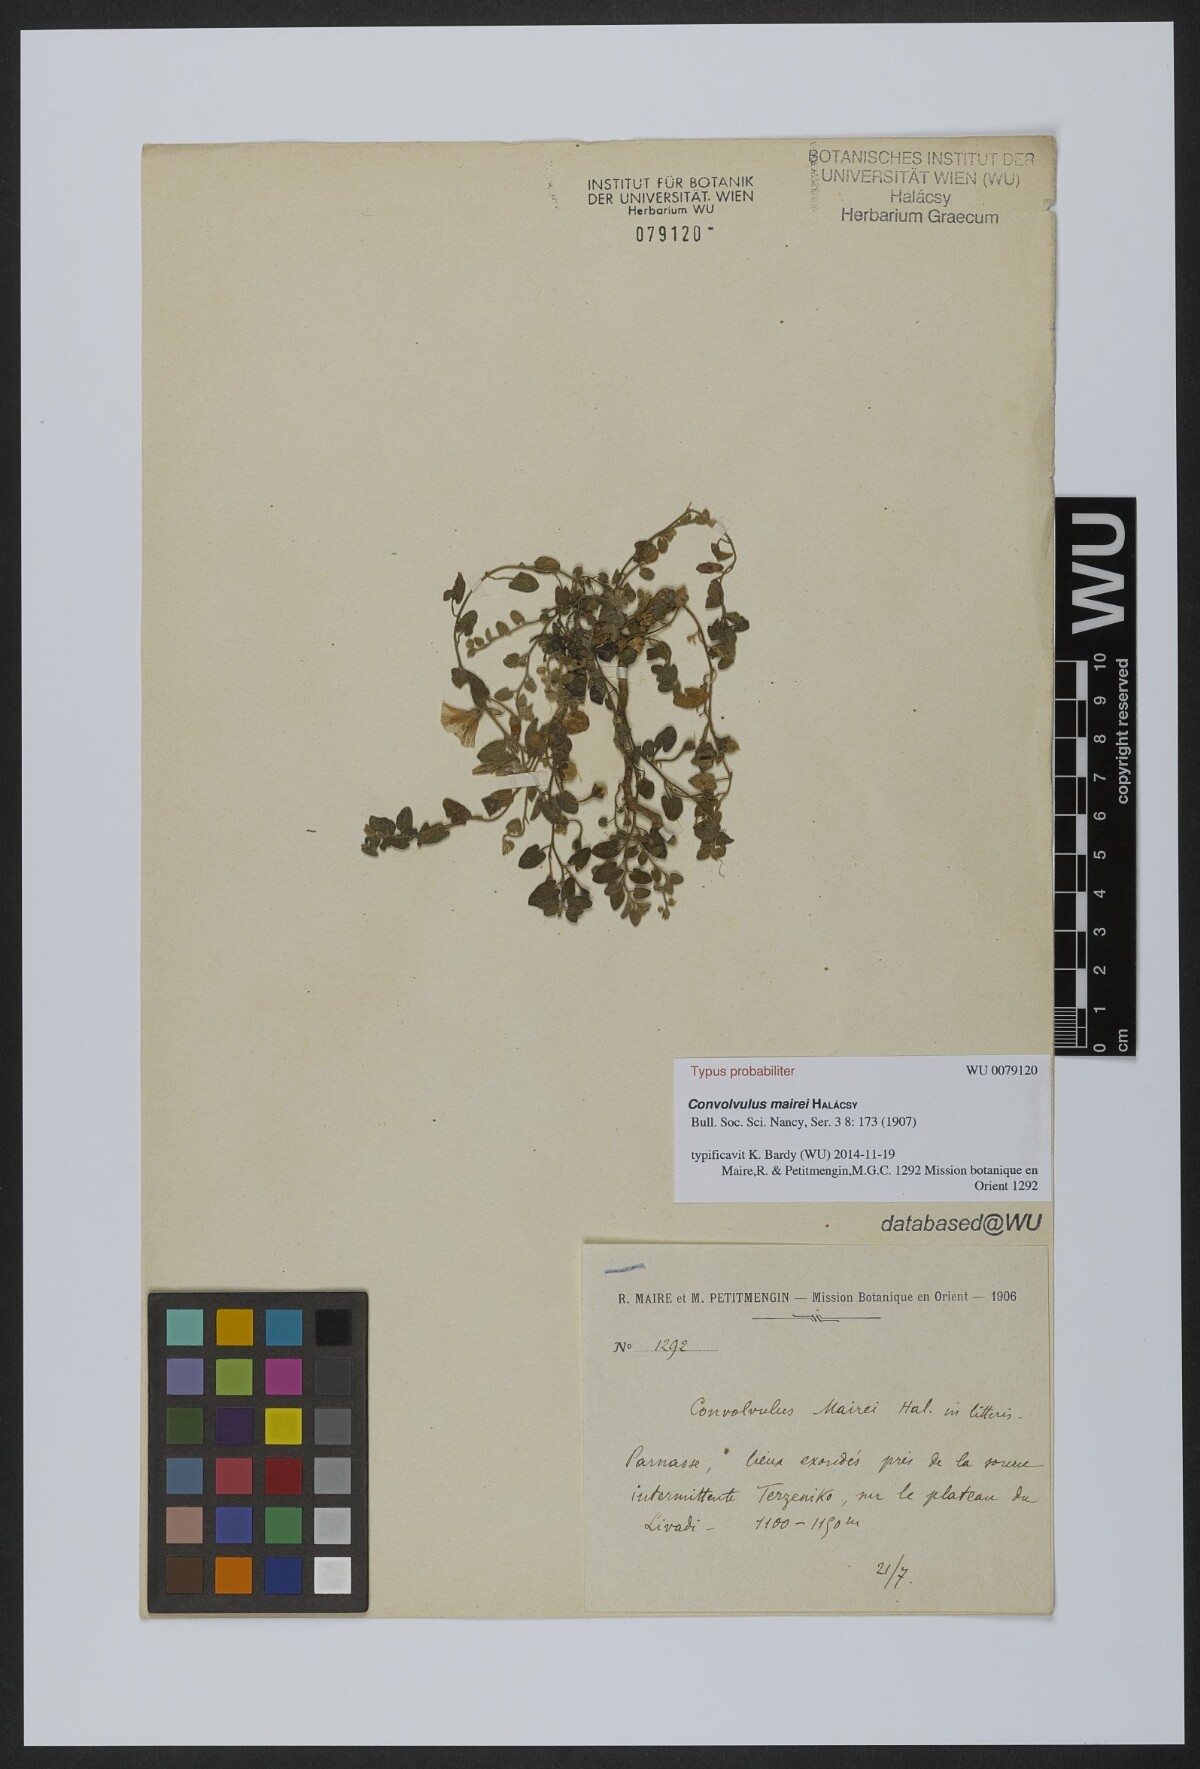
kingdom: Plantae
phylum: Tracheophyta
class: Magnoliopsida
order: Solanales
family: Convolvulaceae
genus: Convolvulus
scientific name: Convolvulus mairei
